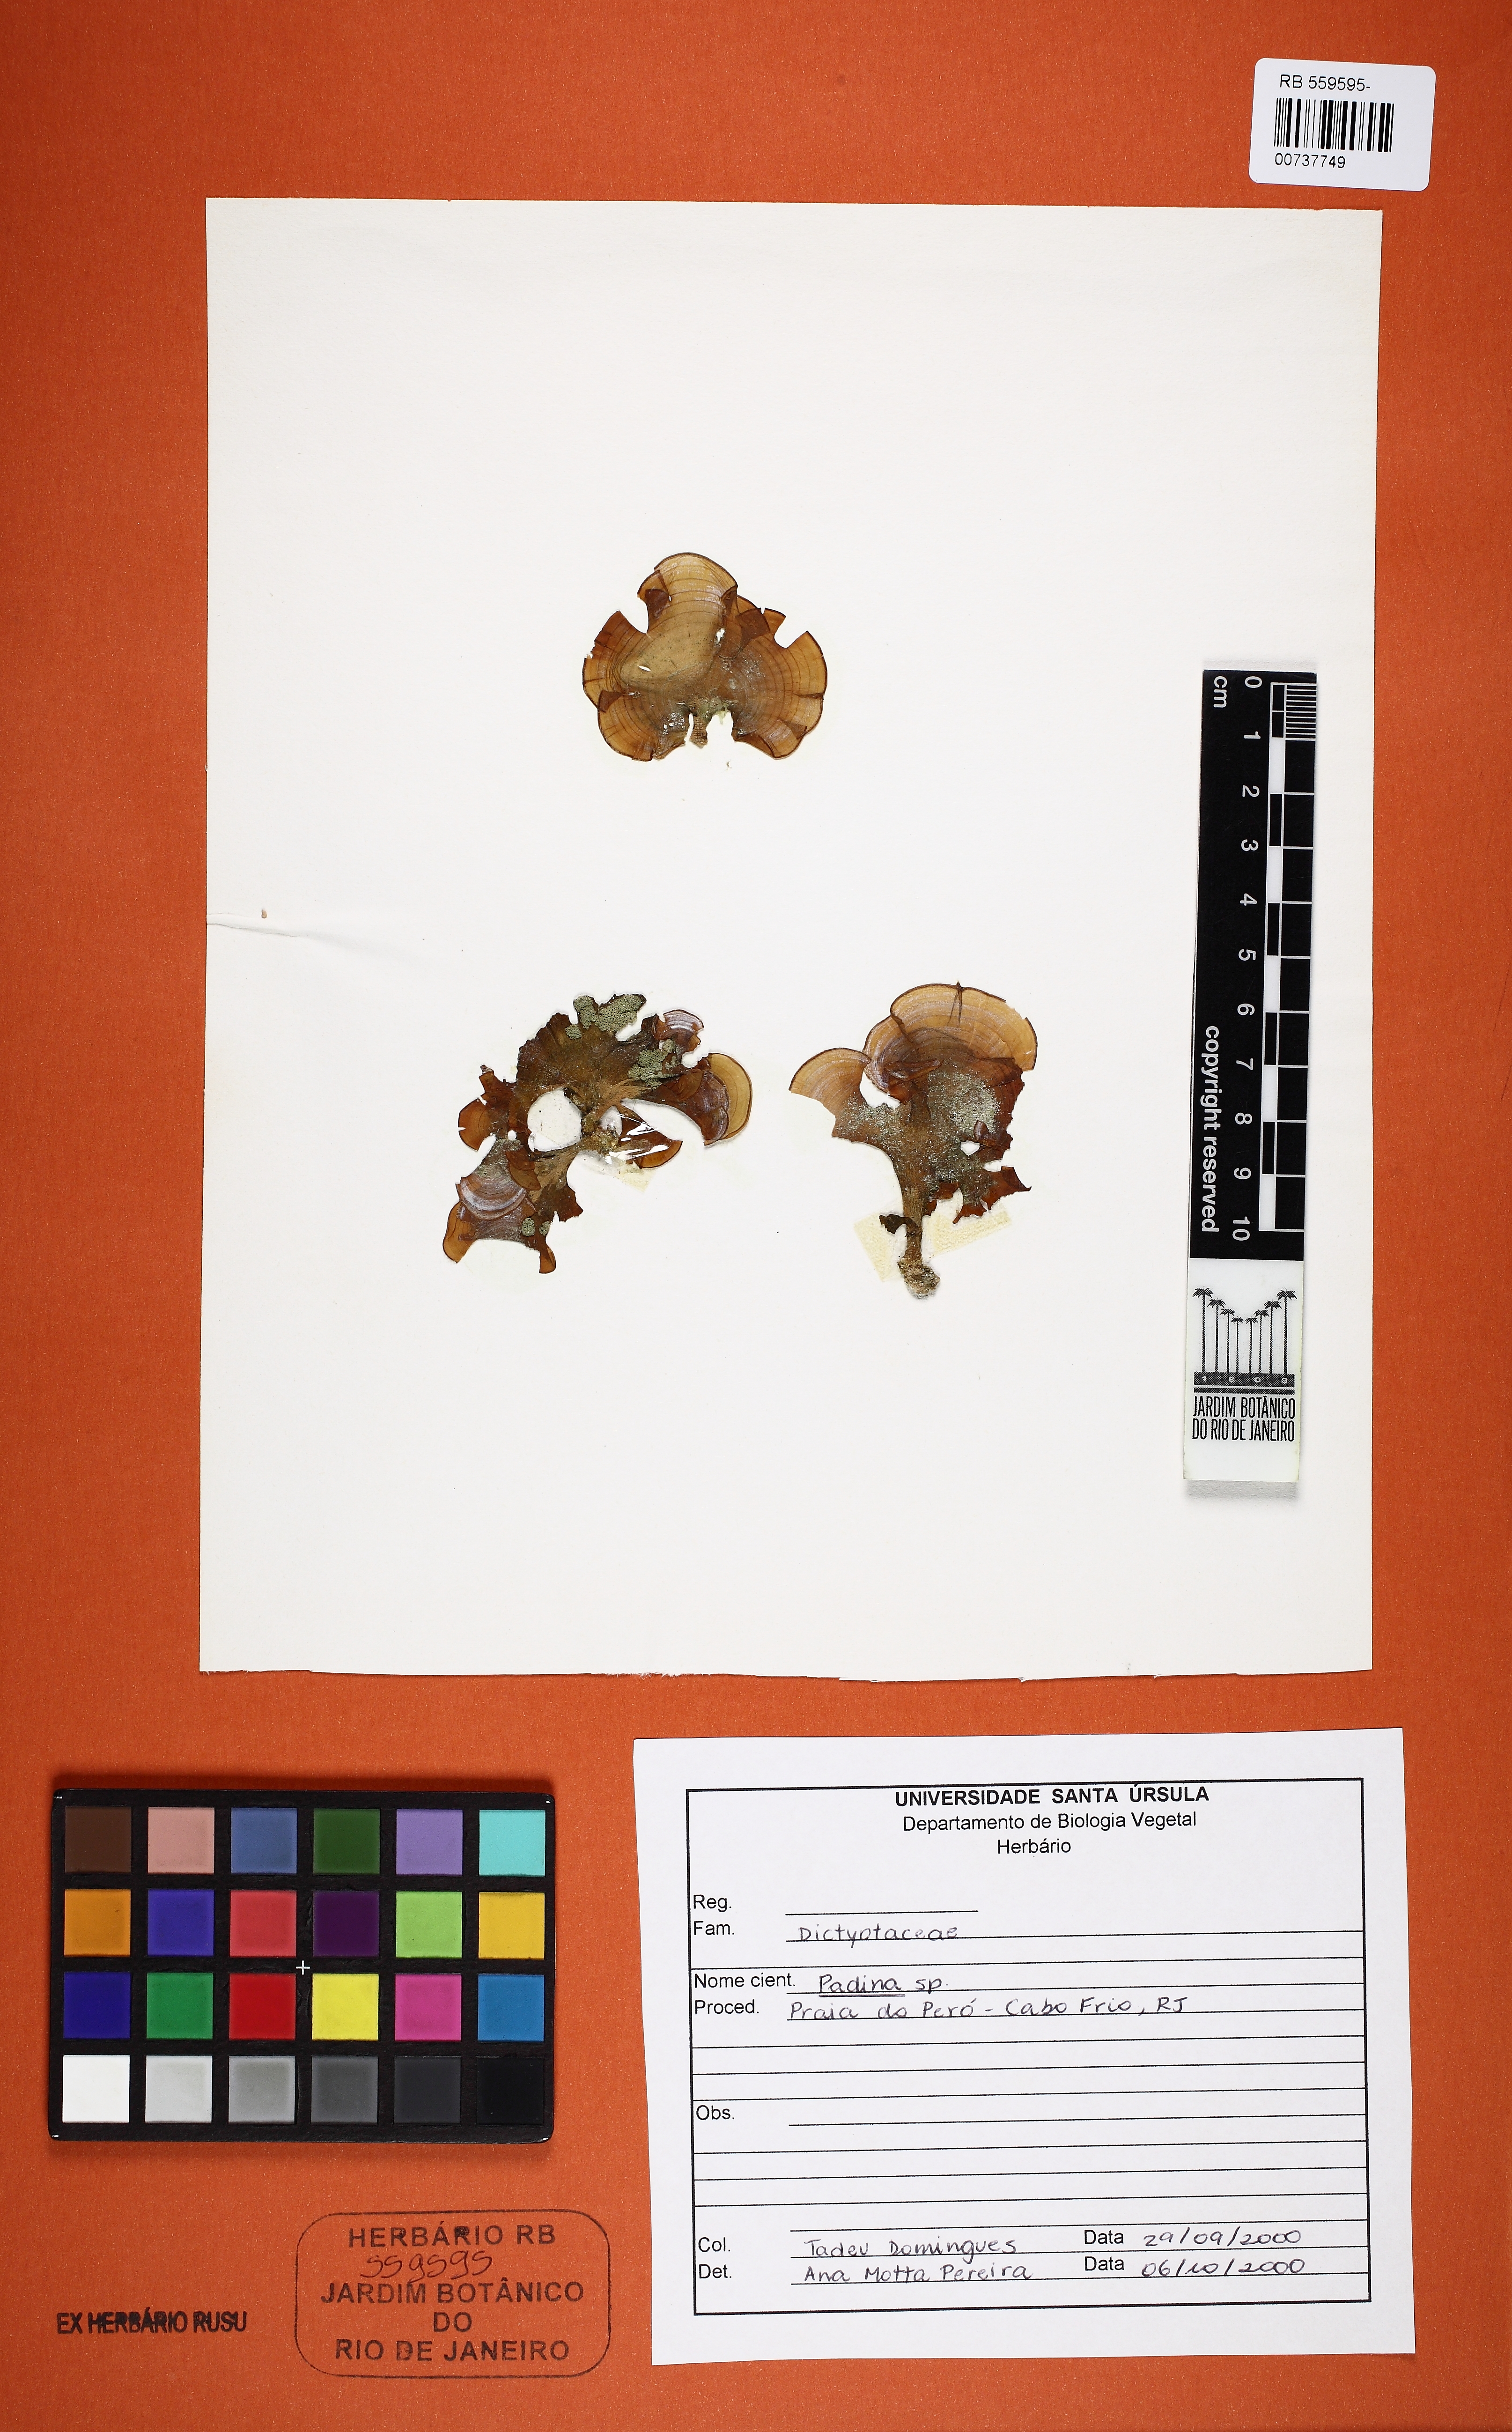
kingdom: Chromista
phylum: Ochrophyta
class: Phaeophyceae
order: Dictyotales
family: Dictyotaceae
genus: Padina
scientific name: Padina
